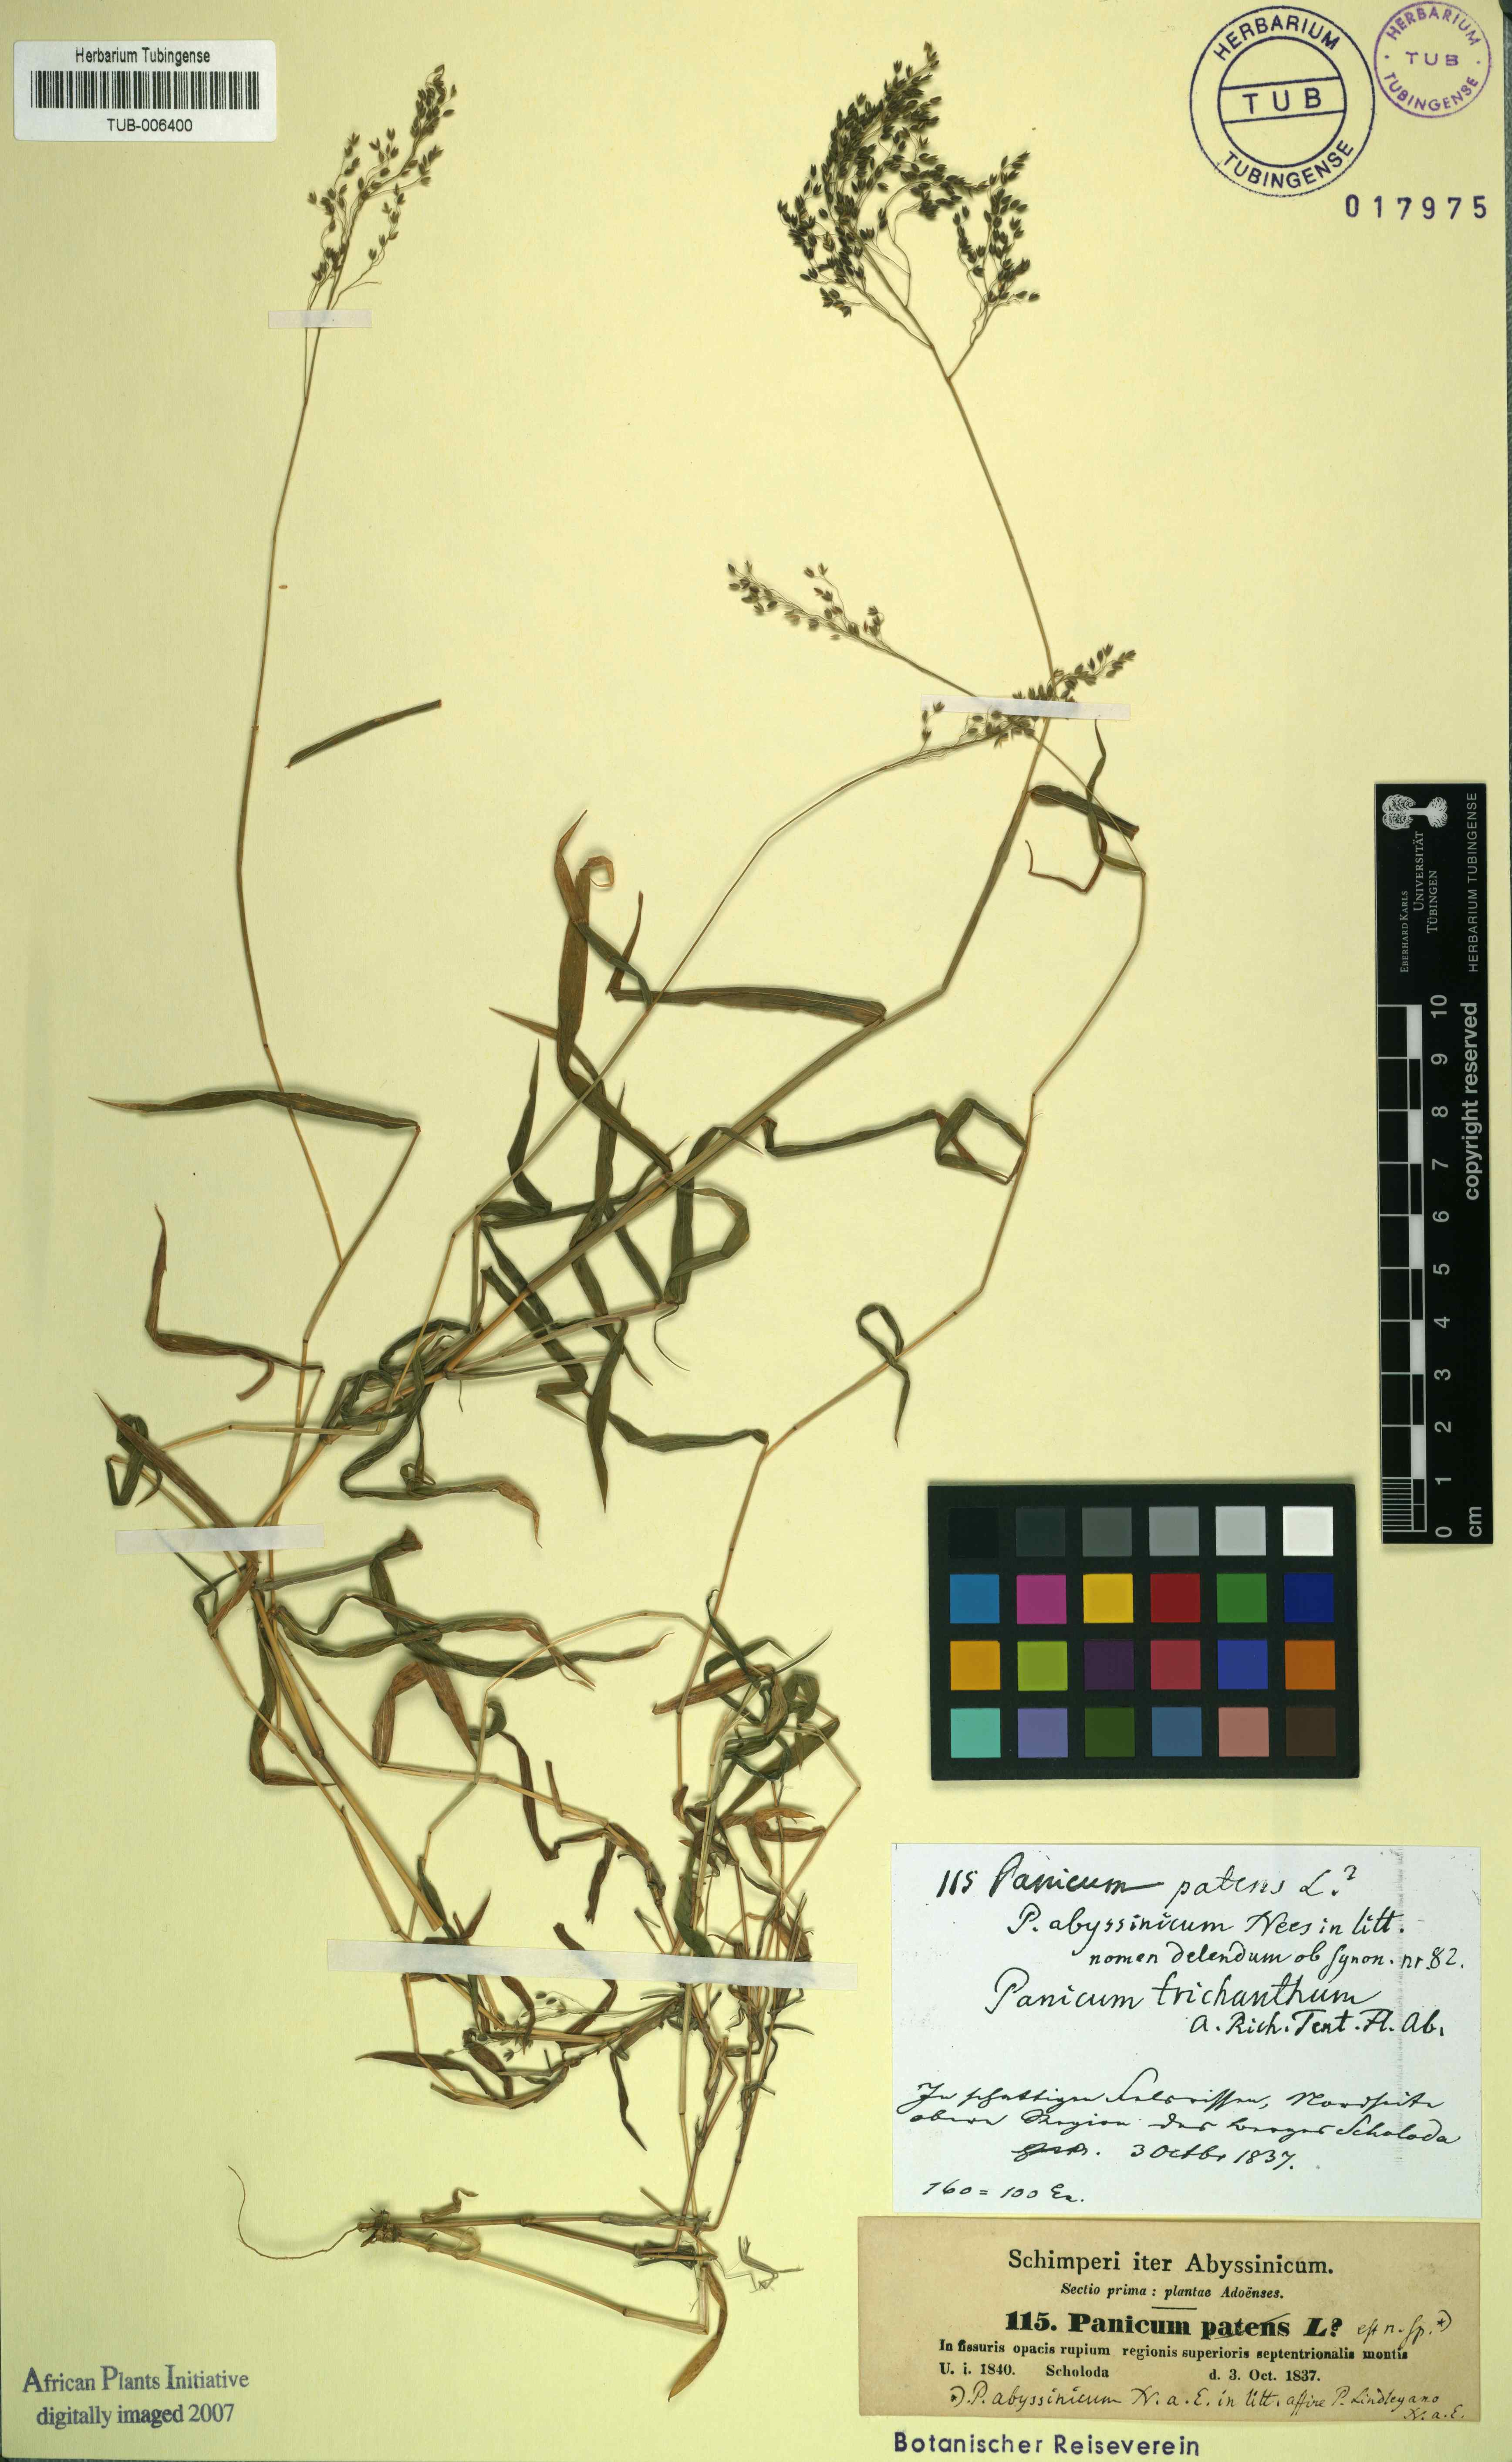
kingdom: Plantae
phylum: Tracheophyta
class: Liliopsida
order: Poales
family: Poaceae
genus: Panicum
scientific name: Panicum abyssinicum
